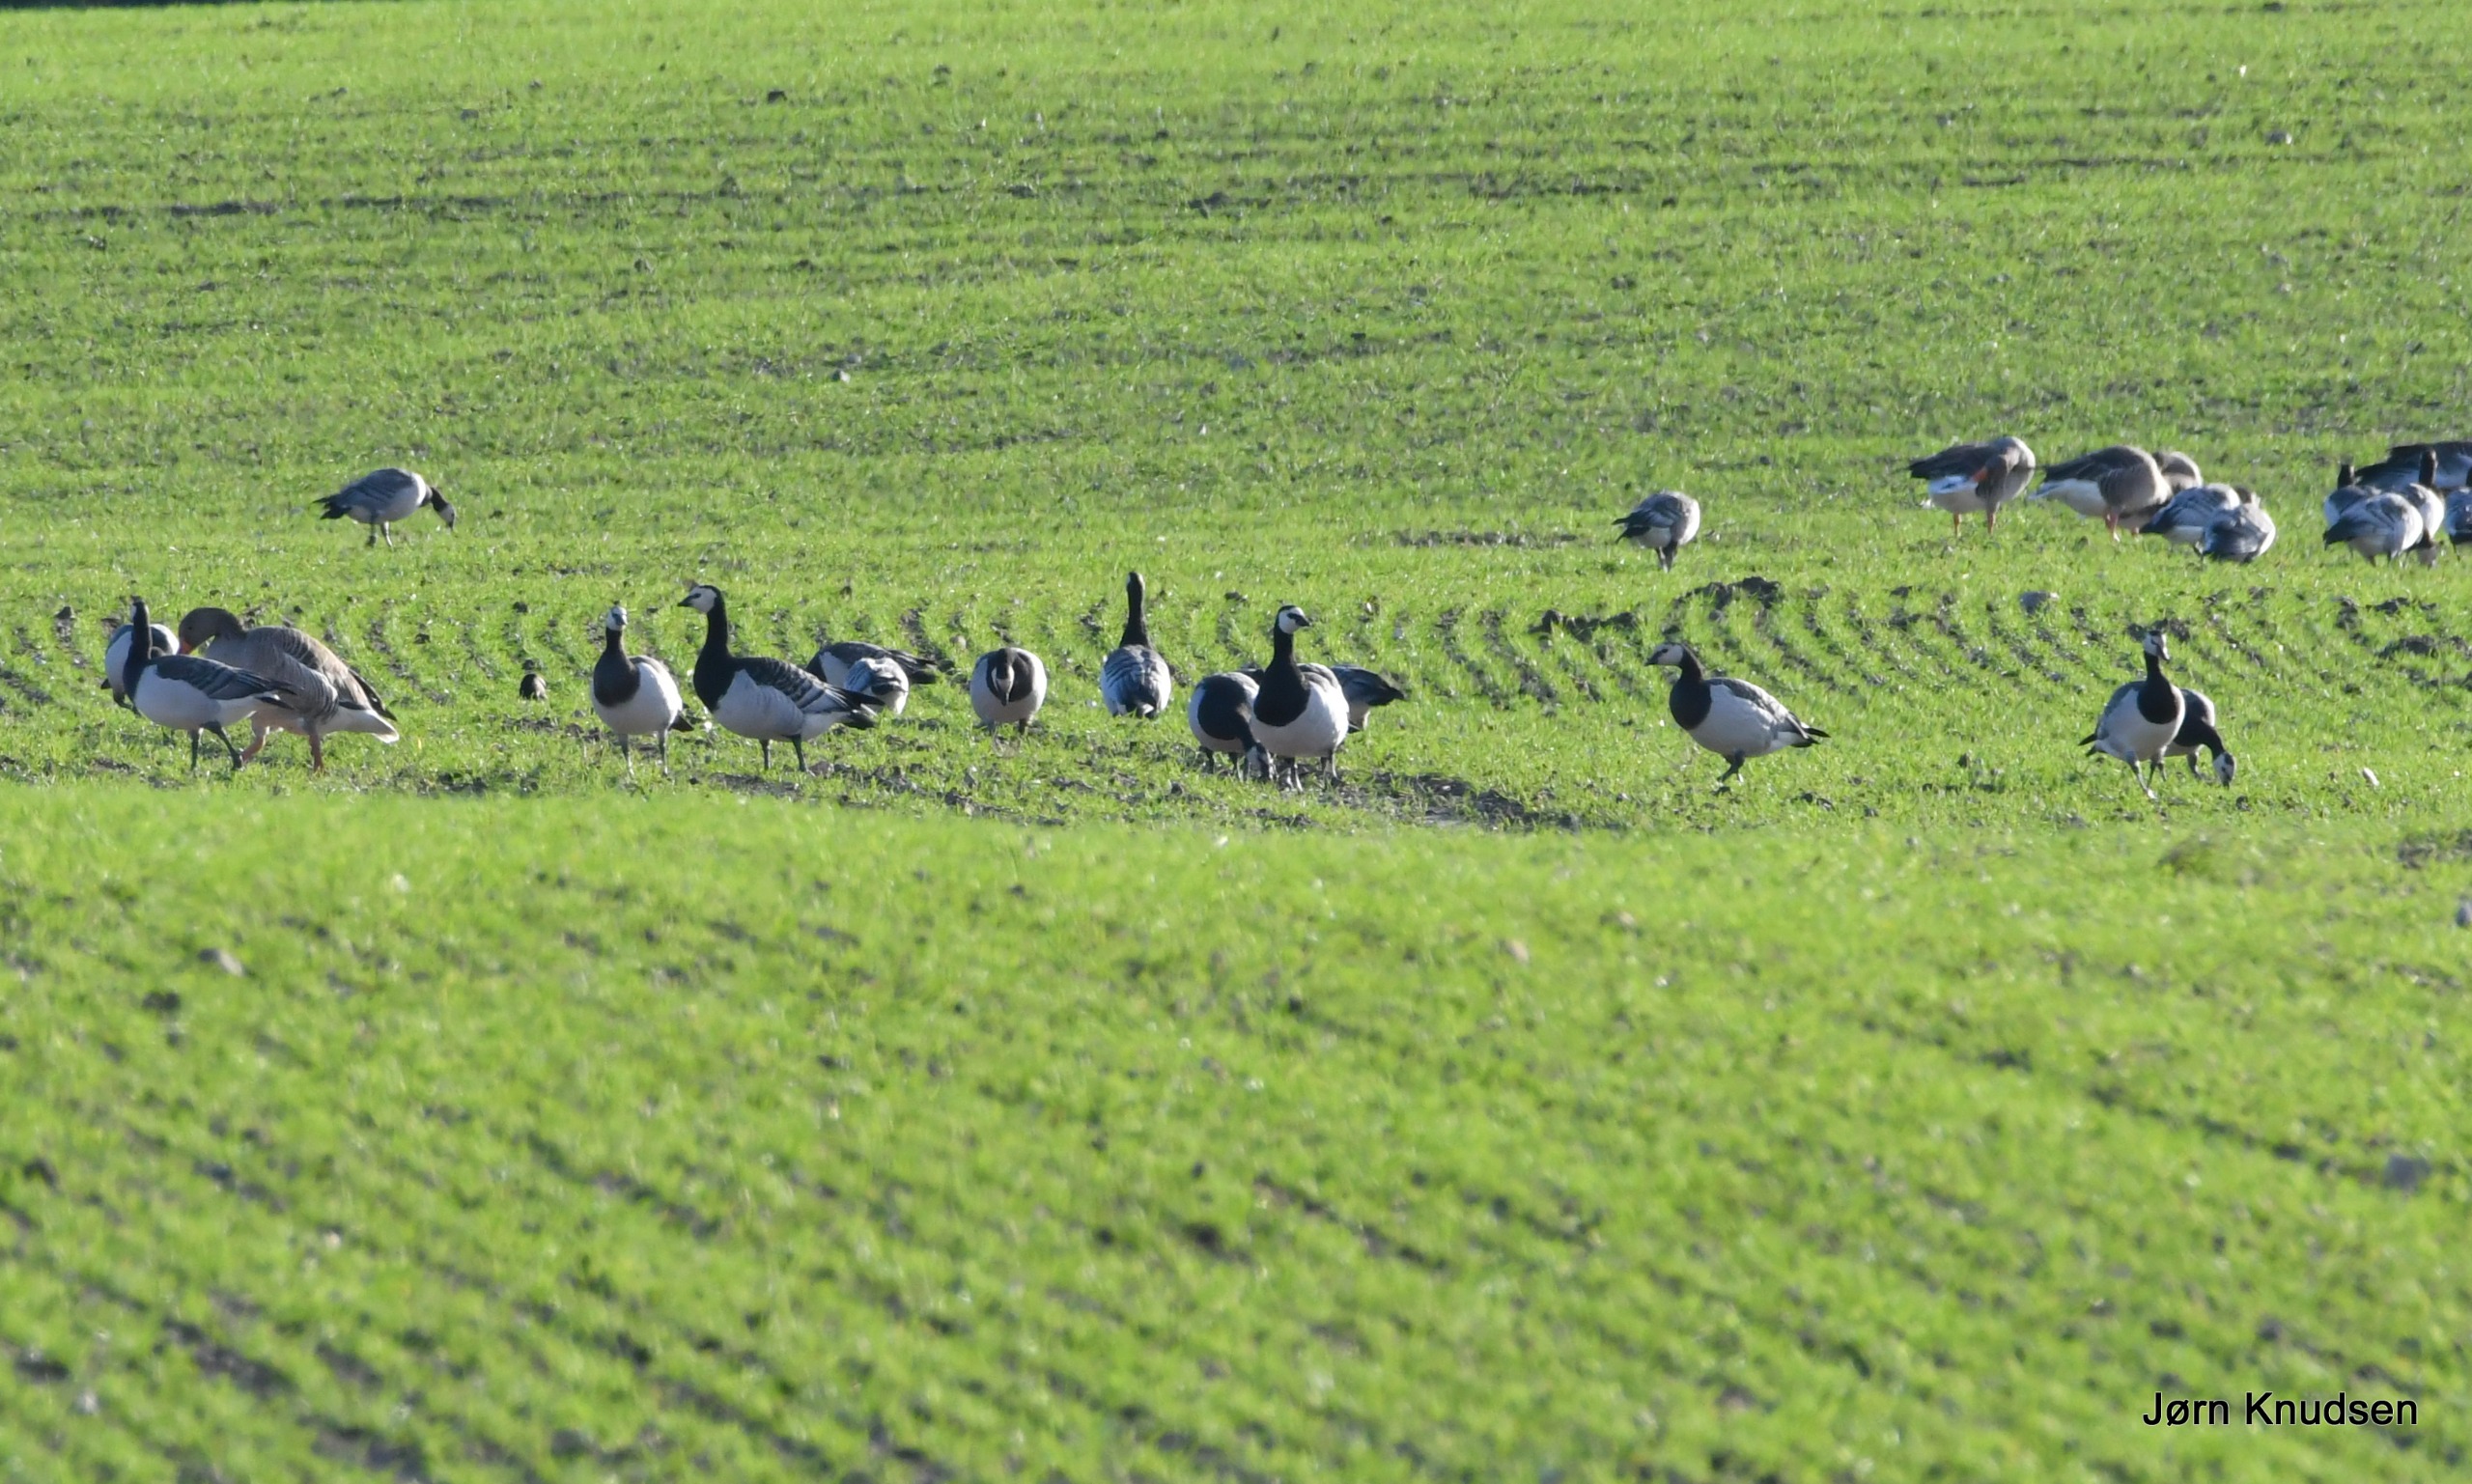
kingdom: Animalia
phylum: Chordata
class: Aves
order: Anseriformes
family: Anatidae
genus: Anser
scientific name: Anser anser
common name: Grågås
